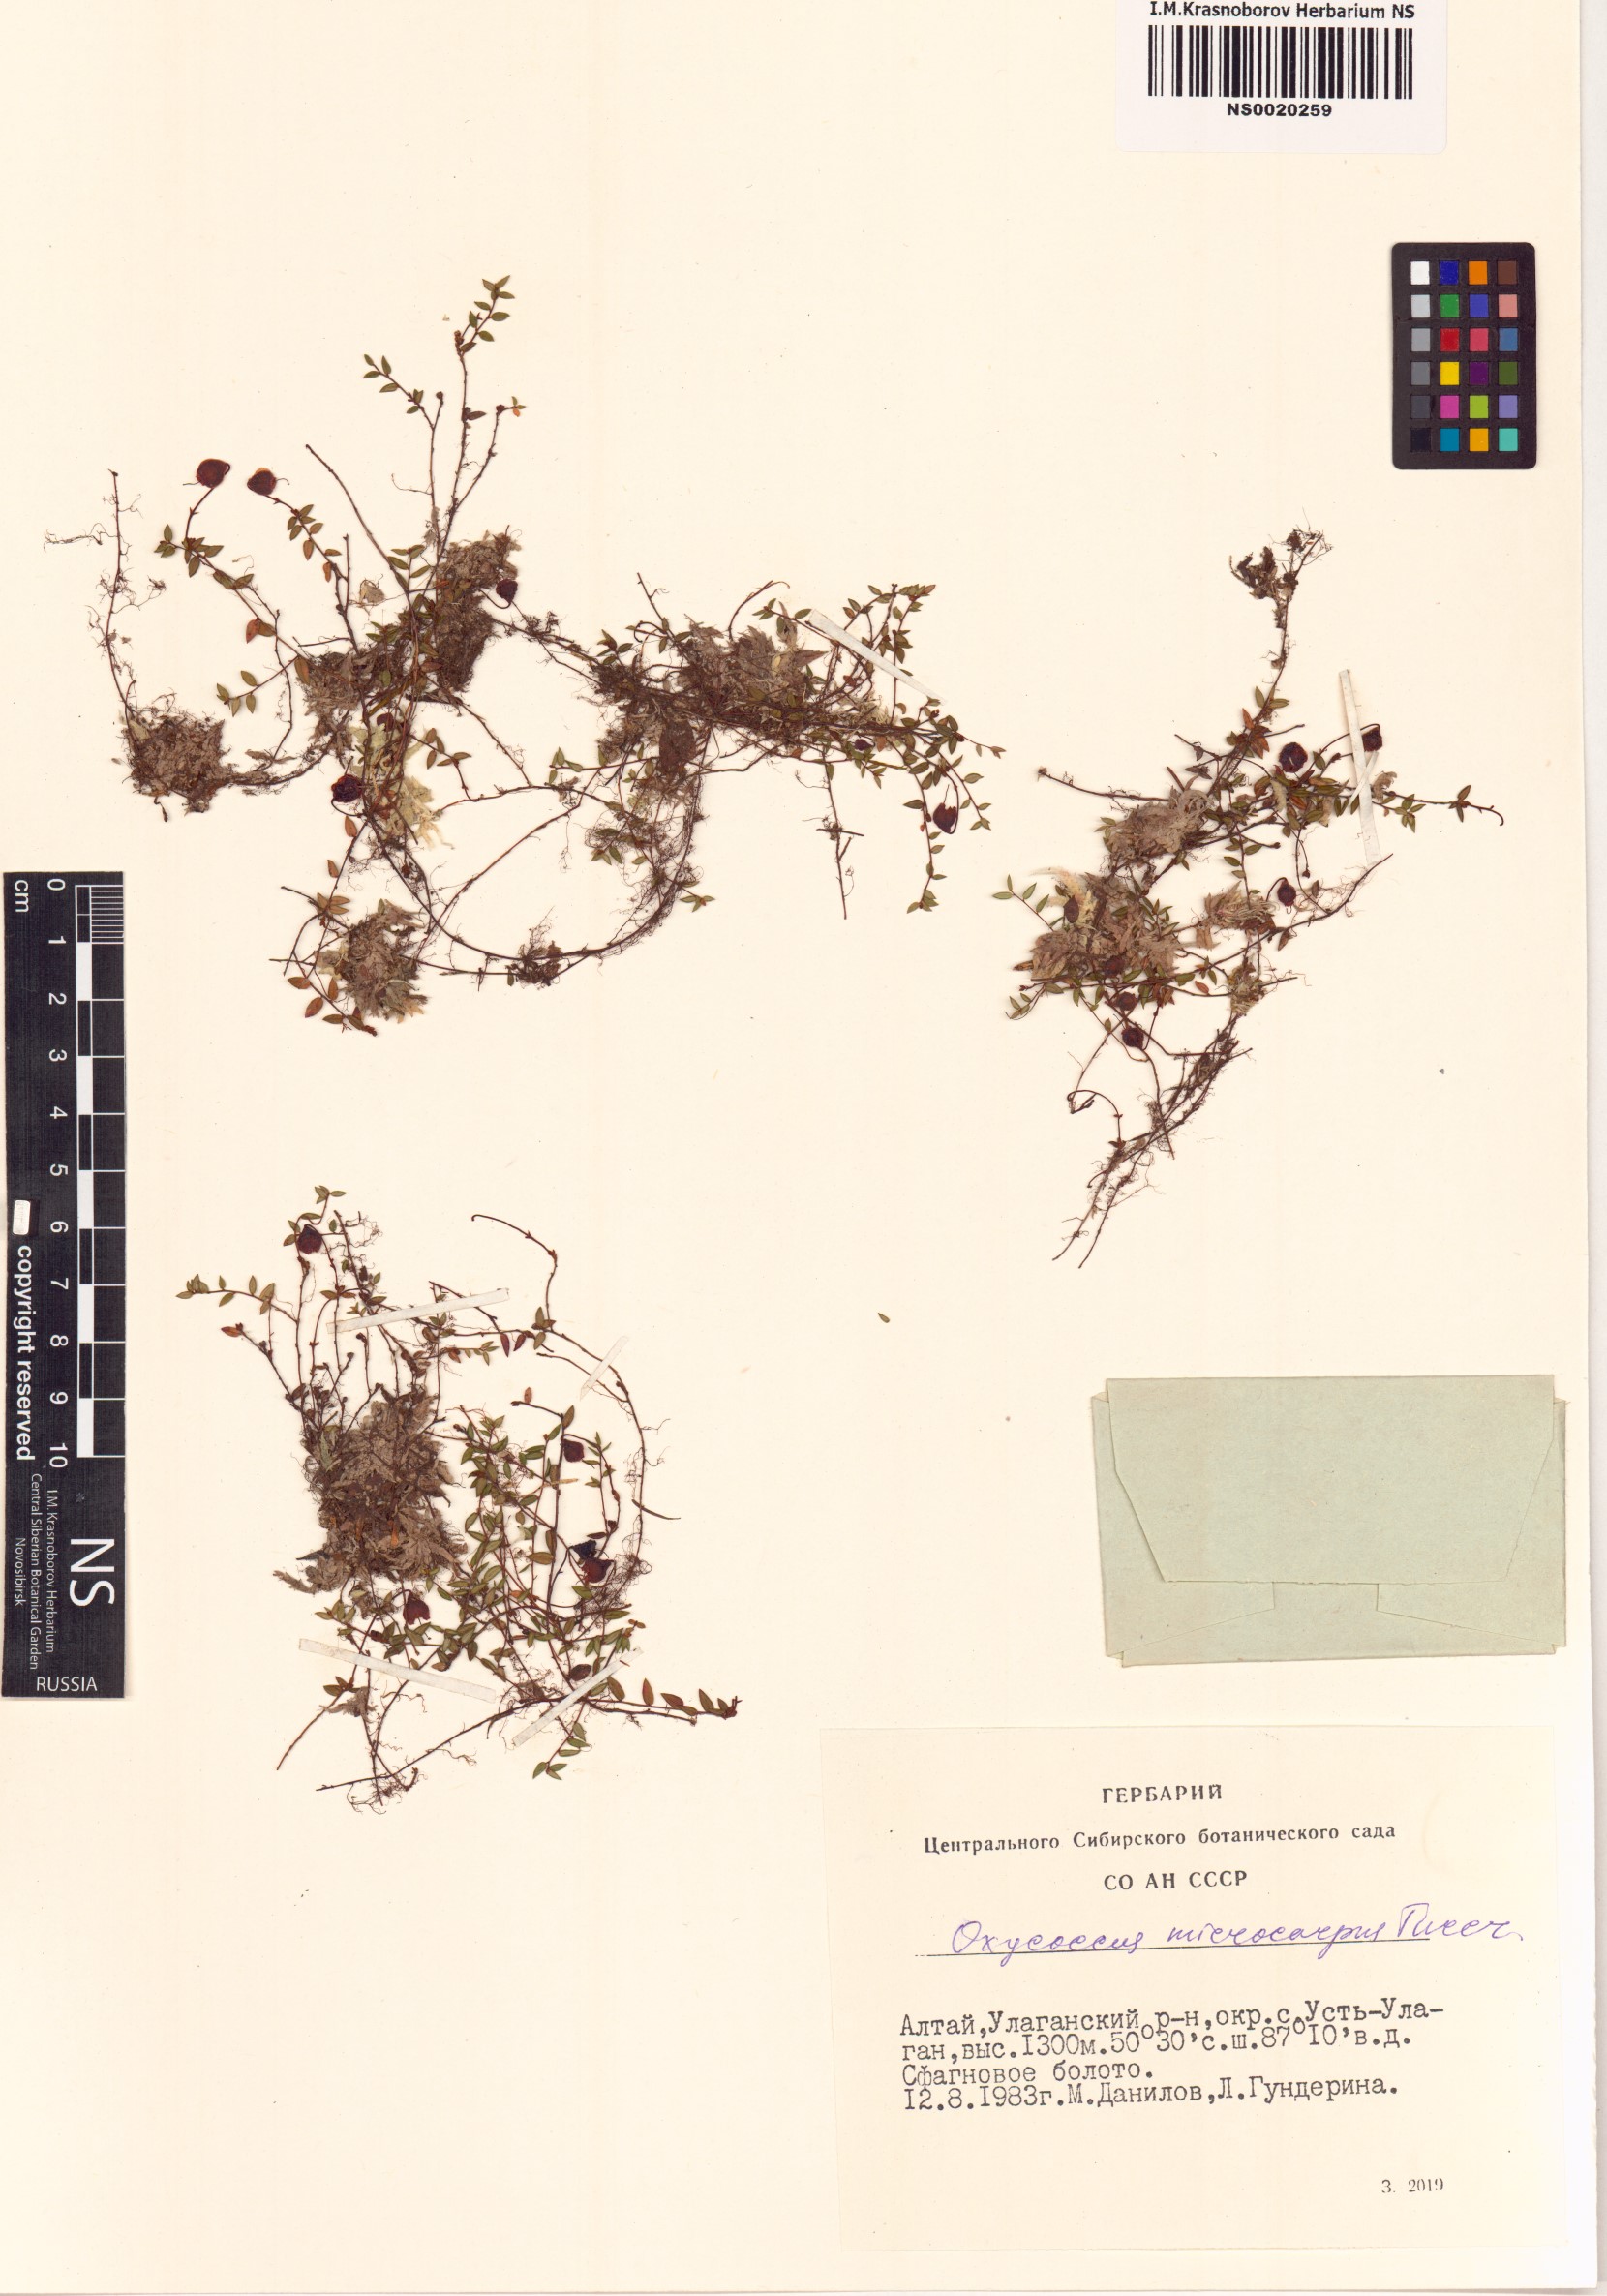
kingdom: Plantae
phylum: Tracheophyta
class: Magnoliopsida
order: Ericales
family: Ericaceae
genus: Vaccinium
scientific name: Vaccinium microcarpum
